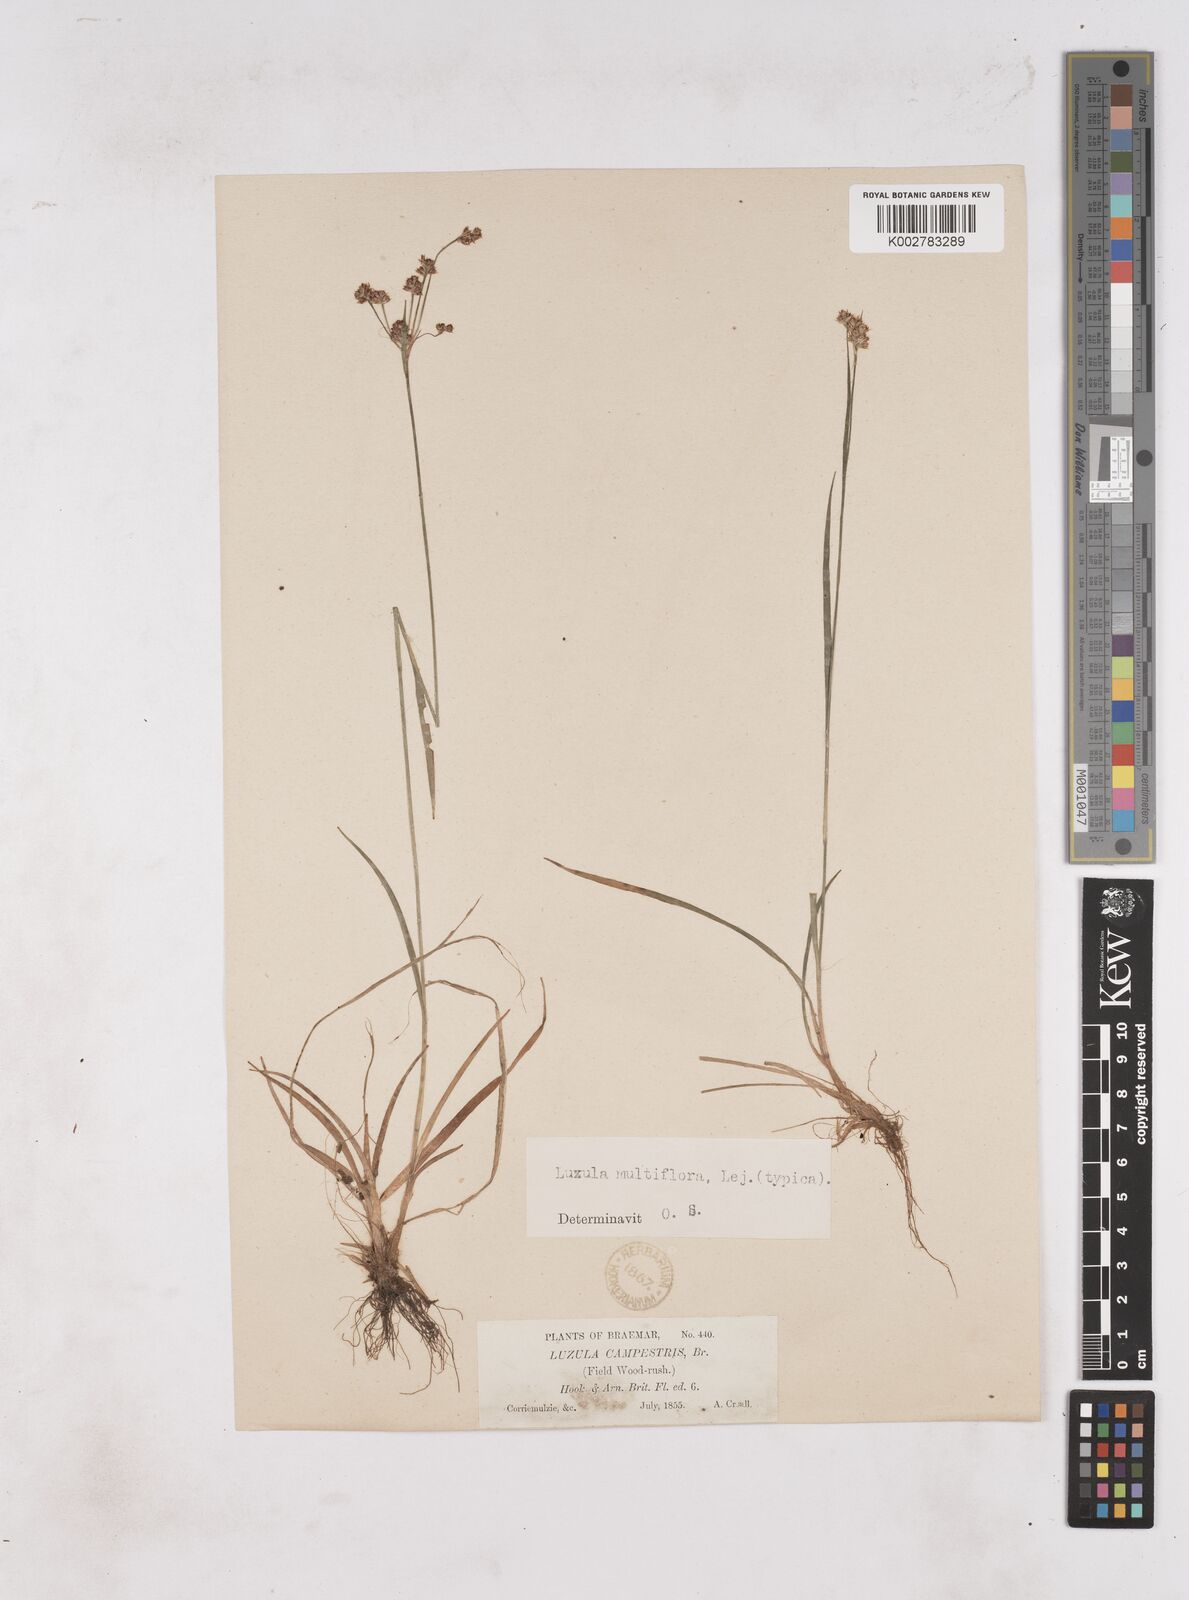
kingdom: Plantae
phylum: Tracheophyta
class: Liliopsida
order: Poales
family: Juncaceae
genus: Luzula
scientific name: Luzula multiflora
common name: Heath wood-rush
